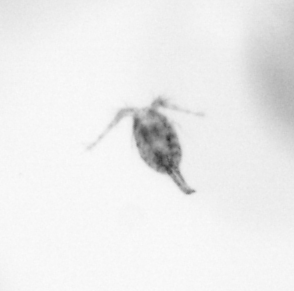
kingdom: Animalia
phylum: Arthropoda
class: Copepoda
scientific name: Copepoda
